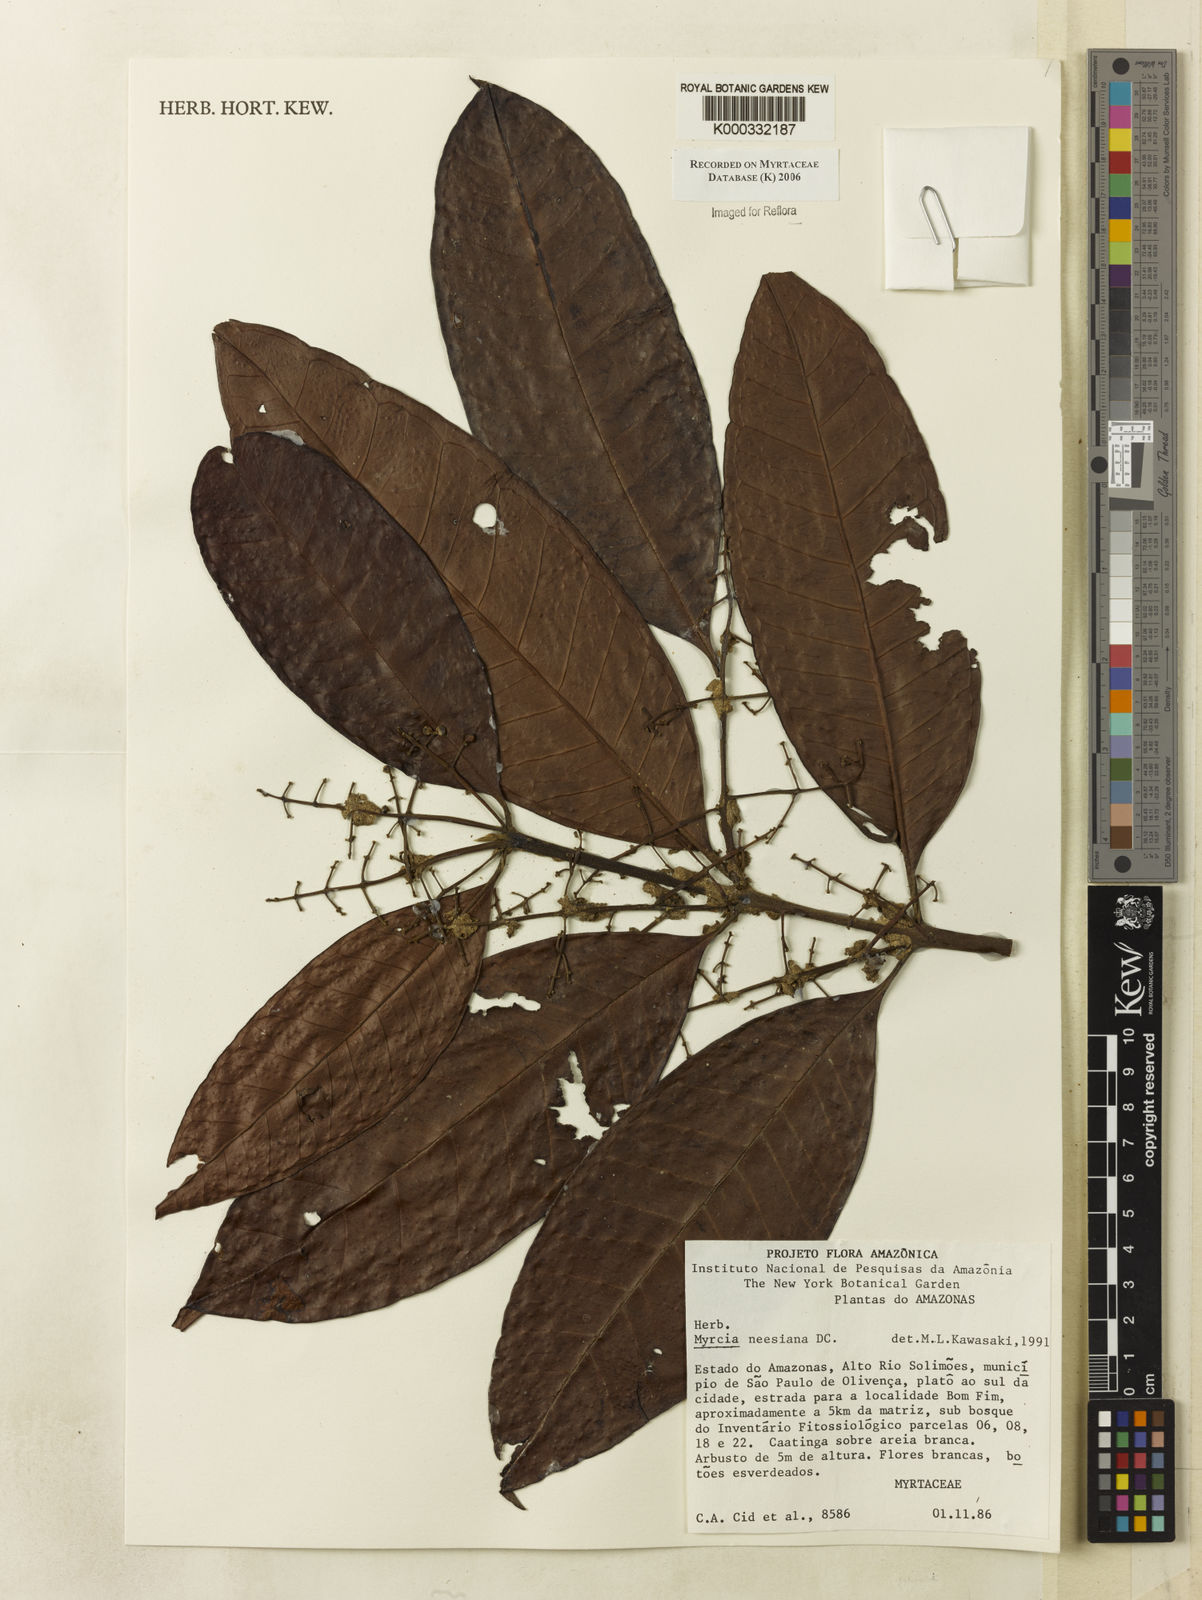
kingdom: Plantae
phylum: Tracheophyta
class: Magnoliopsida
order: Myrtales
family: Myrtaceae
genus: Myrcia
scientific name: Myrcia neesiana
